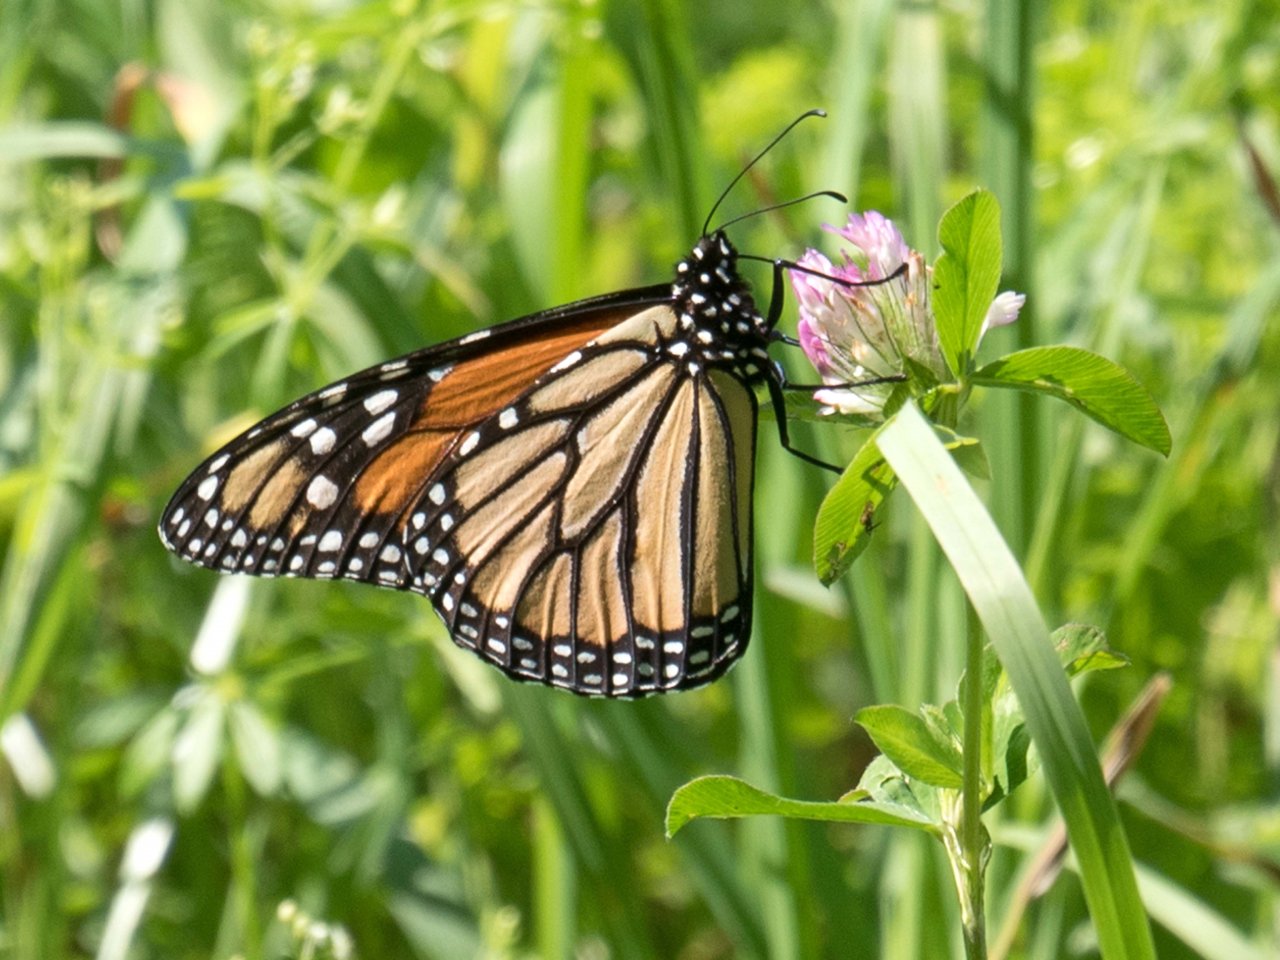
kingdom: Animalia
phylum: Arthropoda
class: Insecta
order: Lepidoptera
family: Nymphalidae
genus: Danaus
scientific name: Danaus plexippus
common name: Monarch
